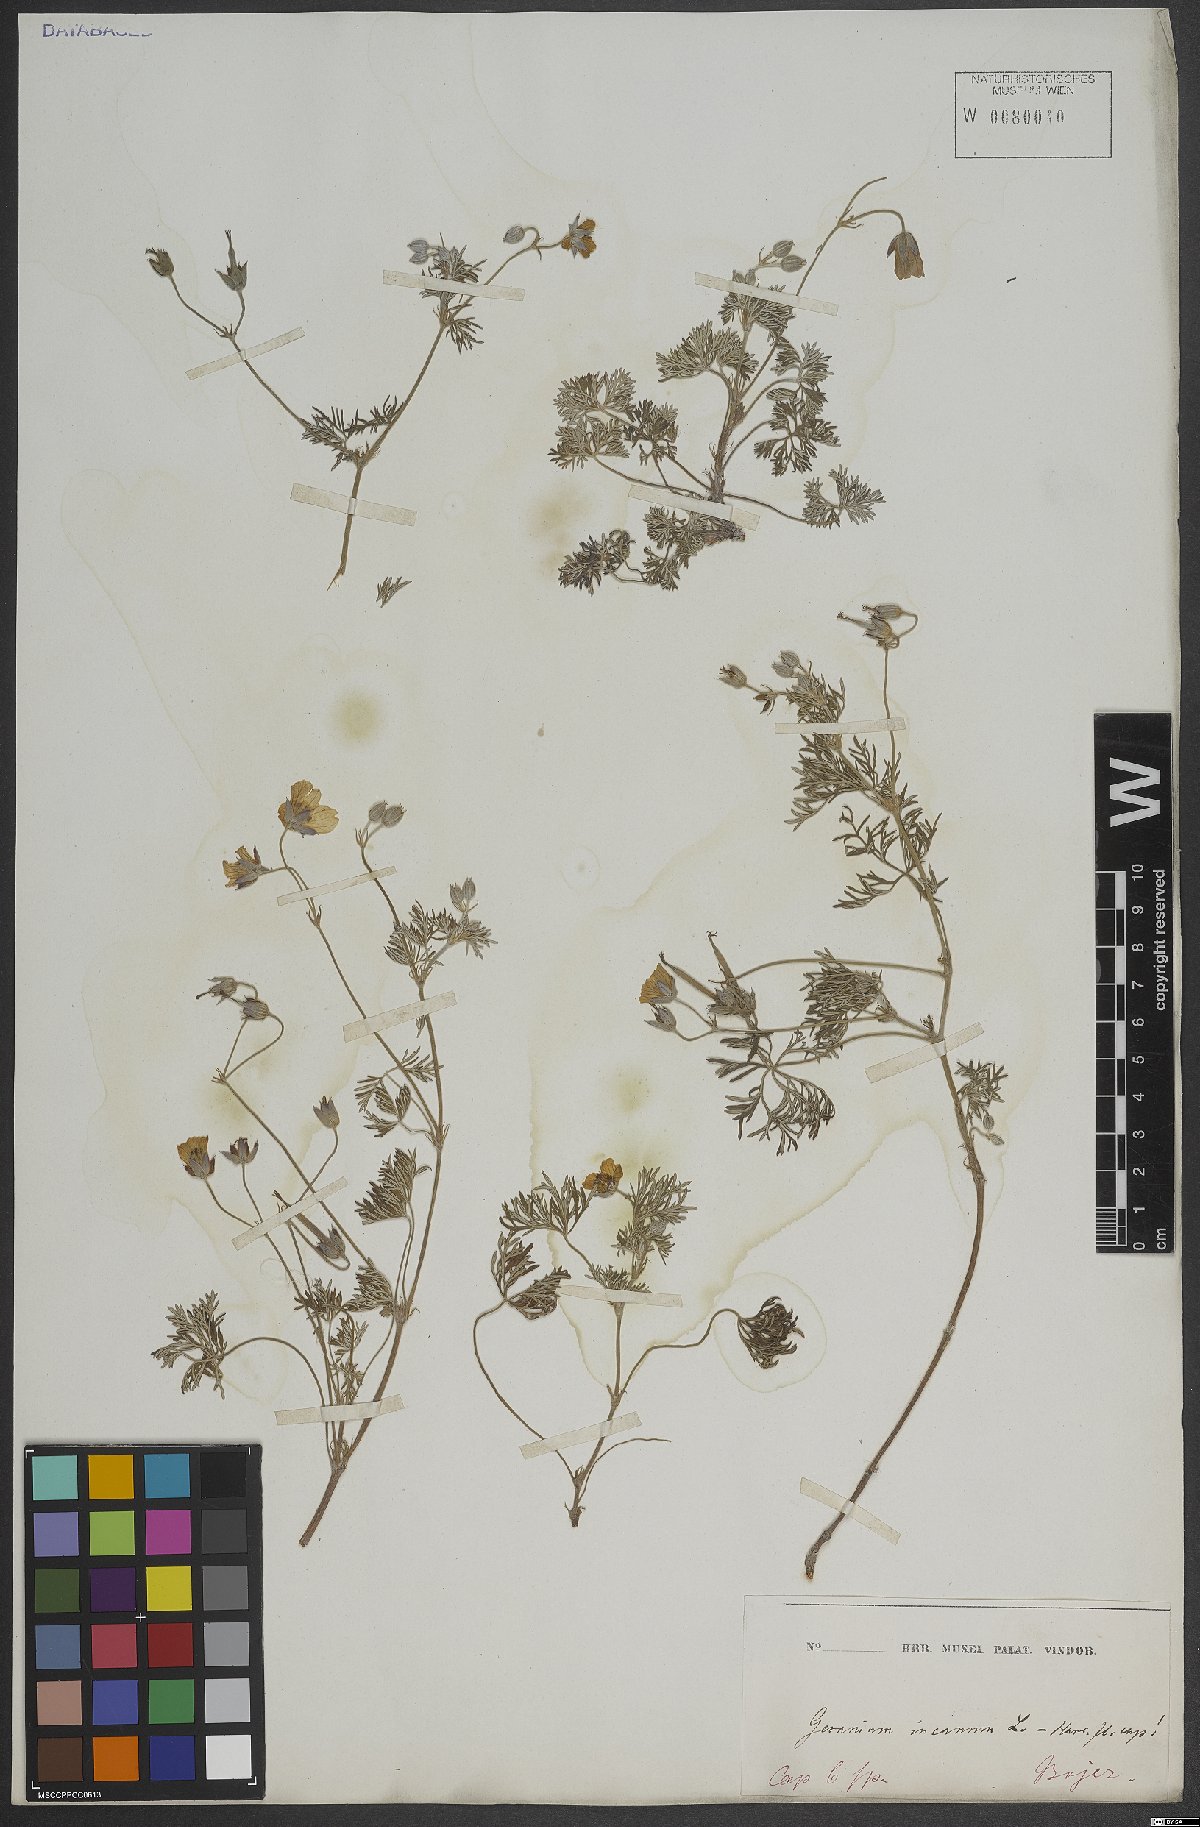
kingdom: Plantae
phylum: Tracheophyta
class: Magnoliopsida
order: Geraniales
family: Geraniaceae
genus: Geranium
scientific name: Geranium incanum
